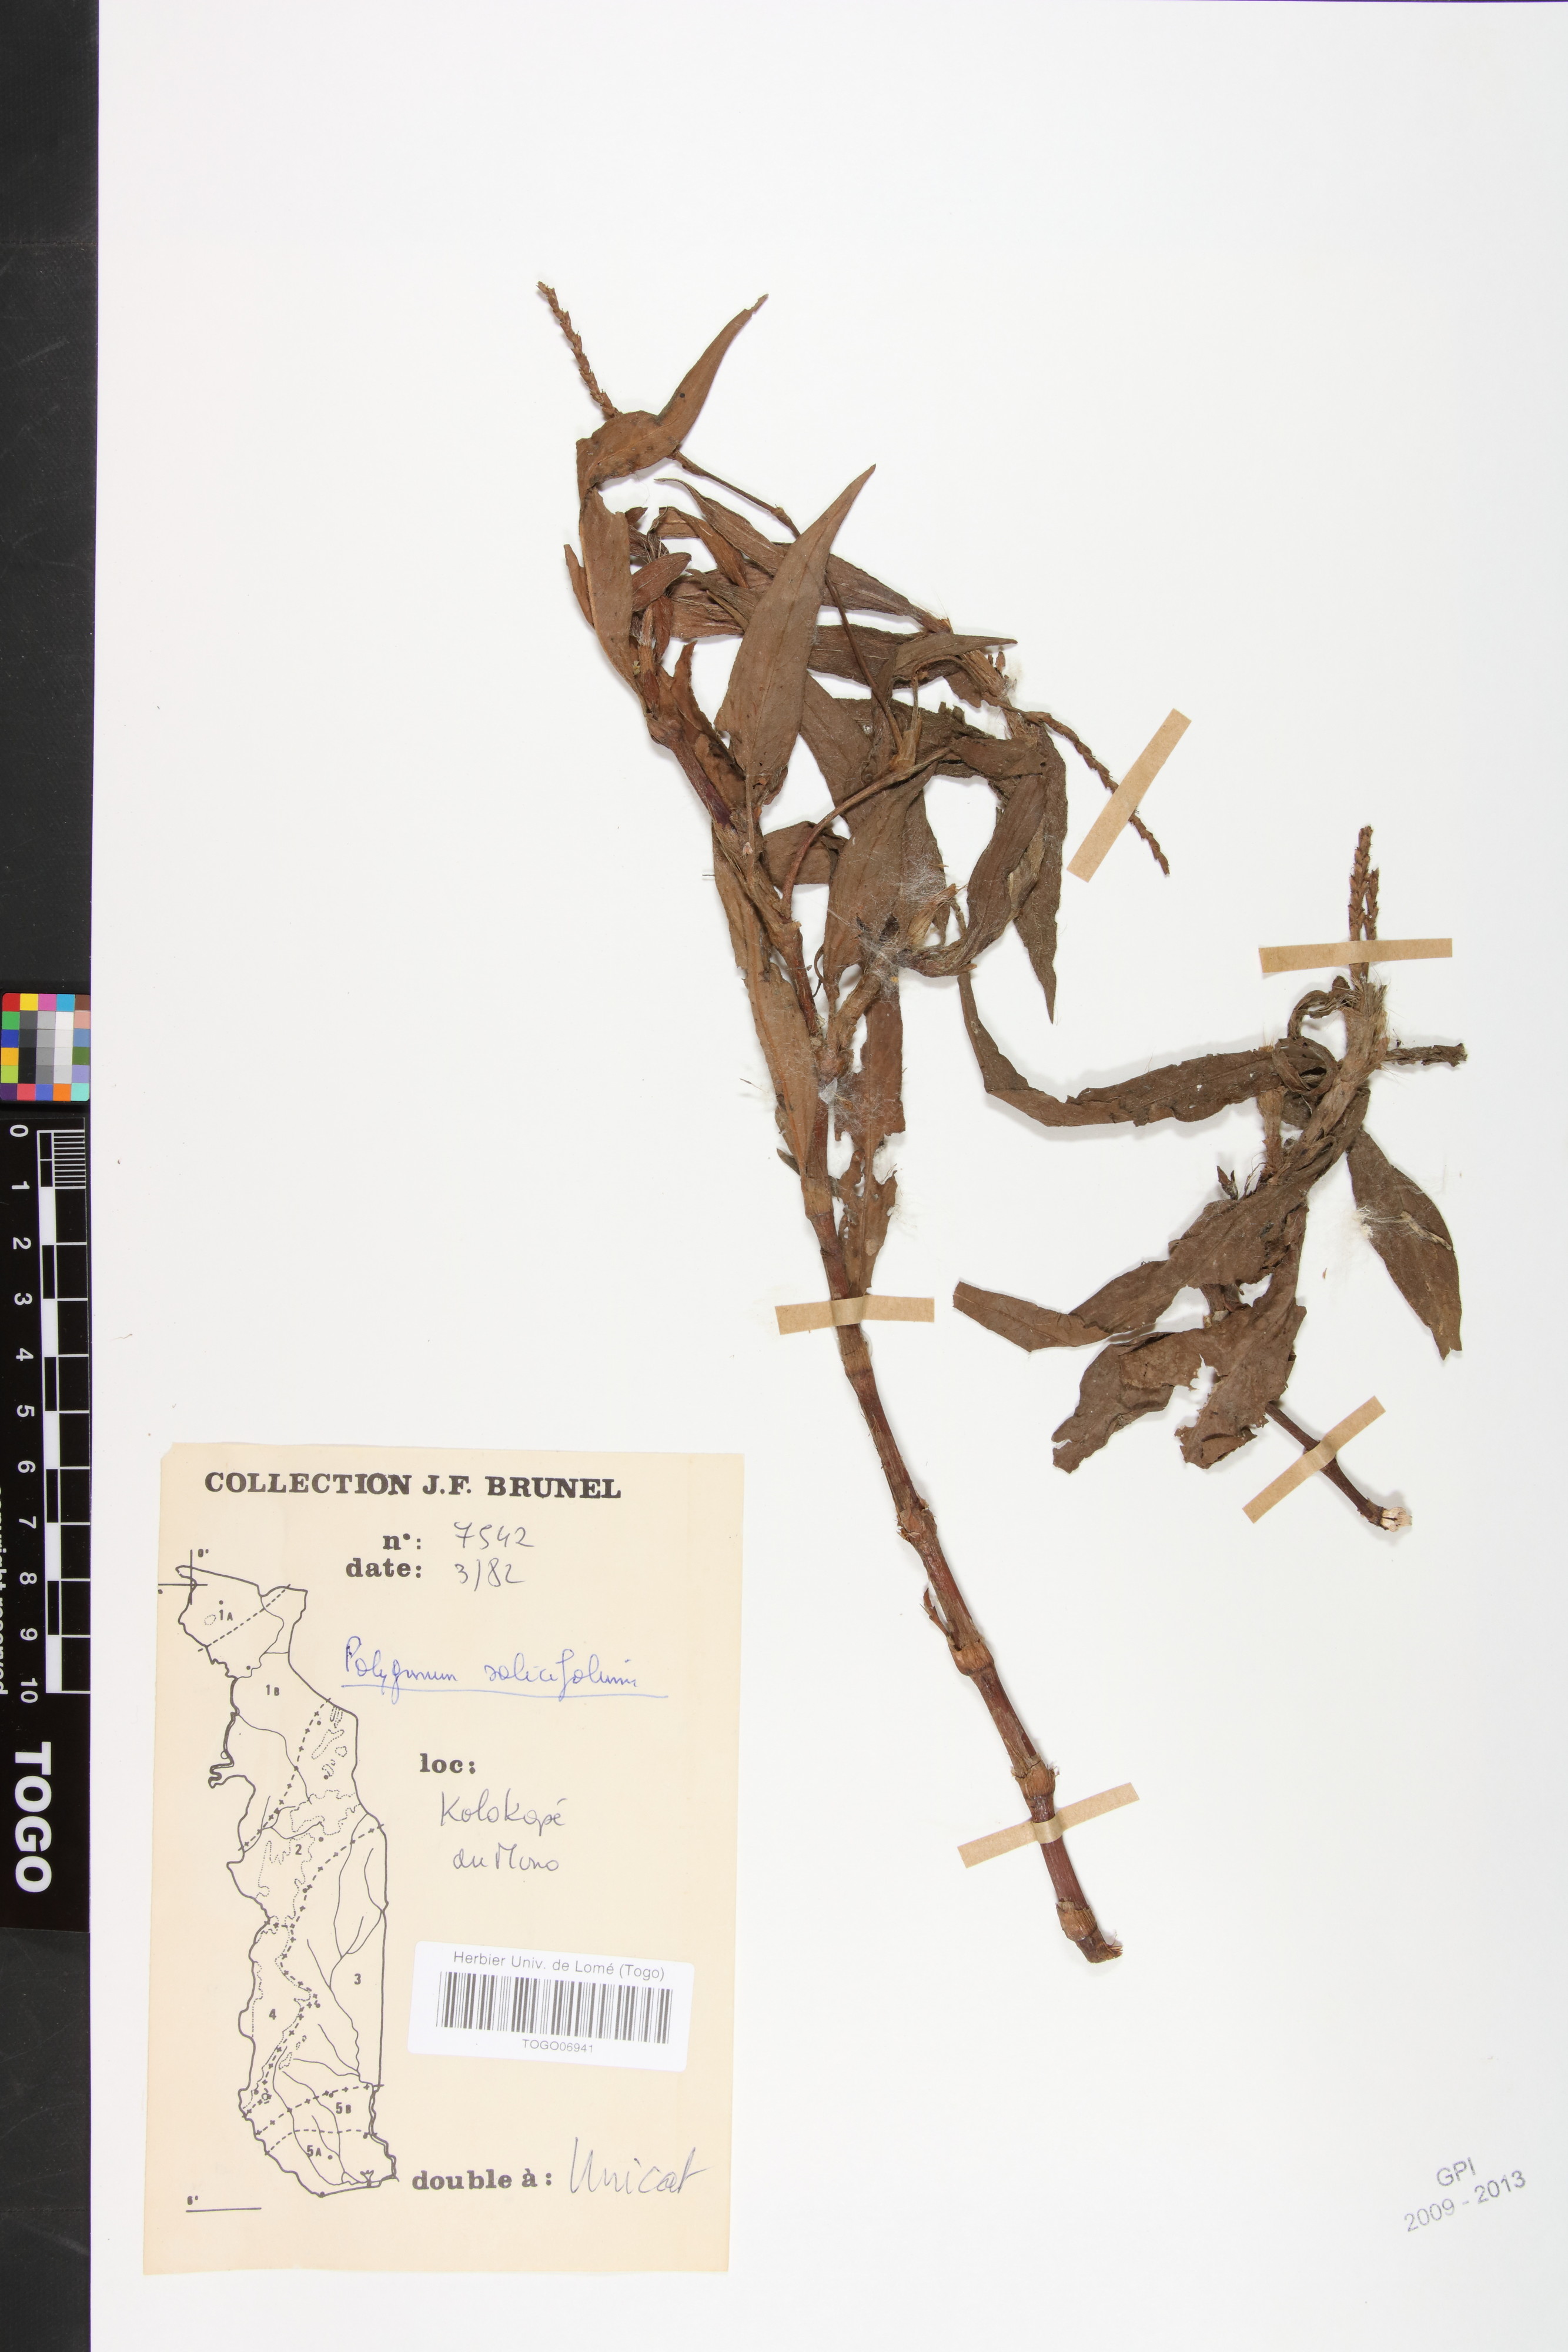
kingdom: Plantae
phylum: Tracheophyta
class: Magnoliopsida
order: Caryophyllales
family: Polygonaceae
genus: Persicaria
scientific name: Persicaria salicifolia
